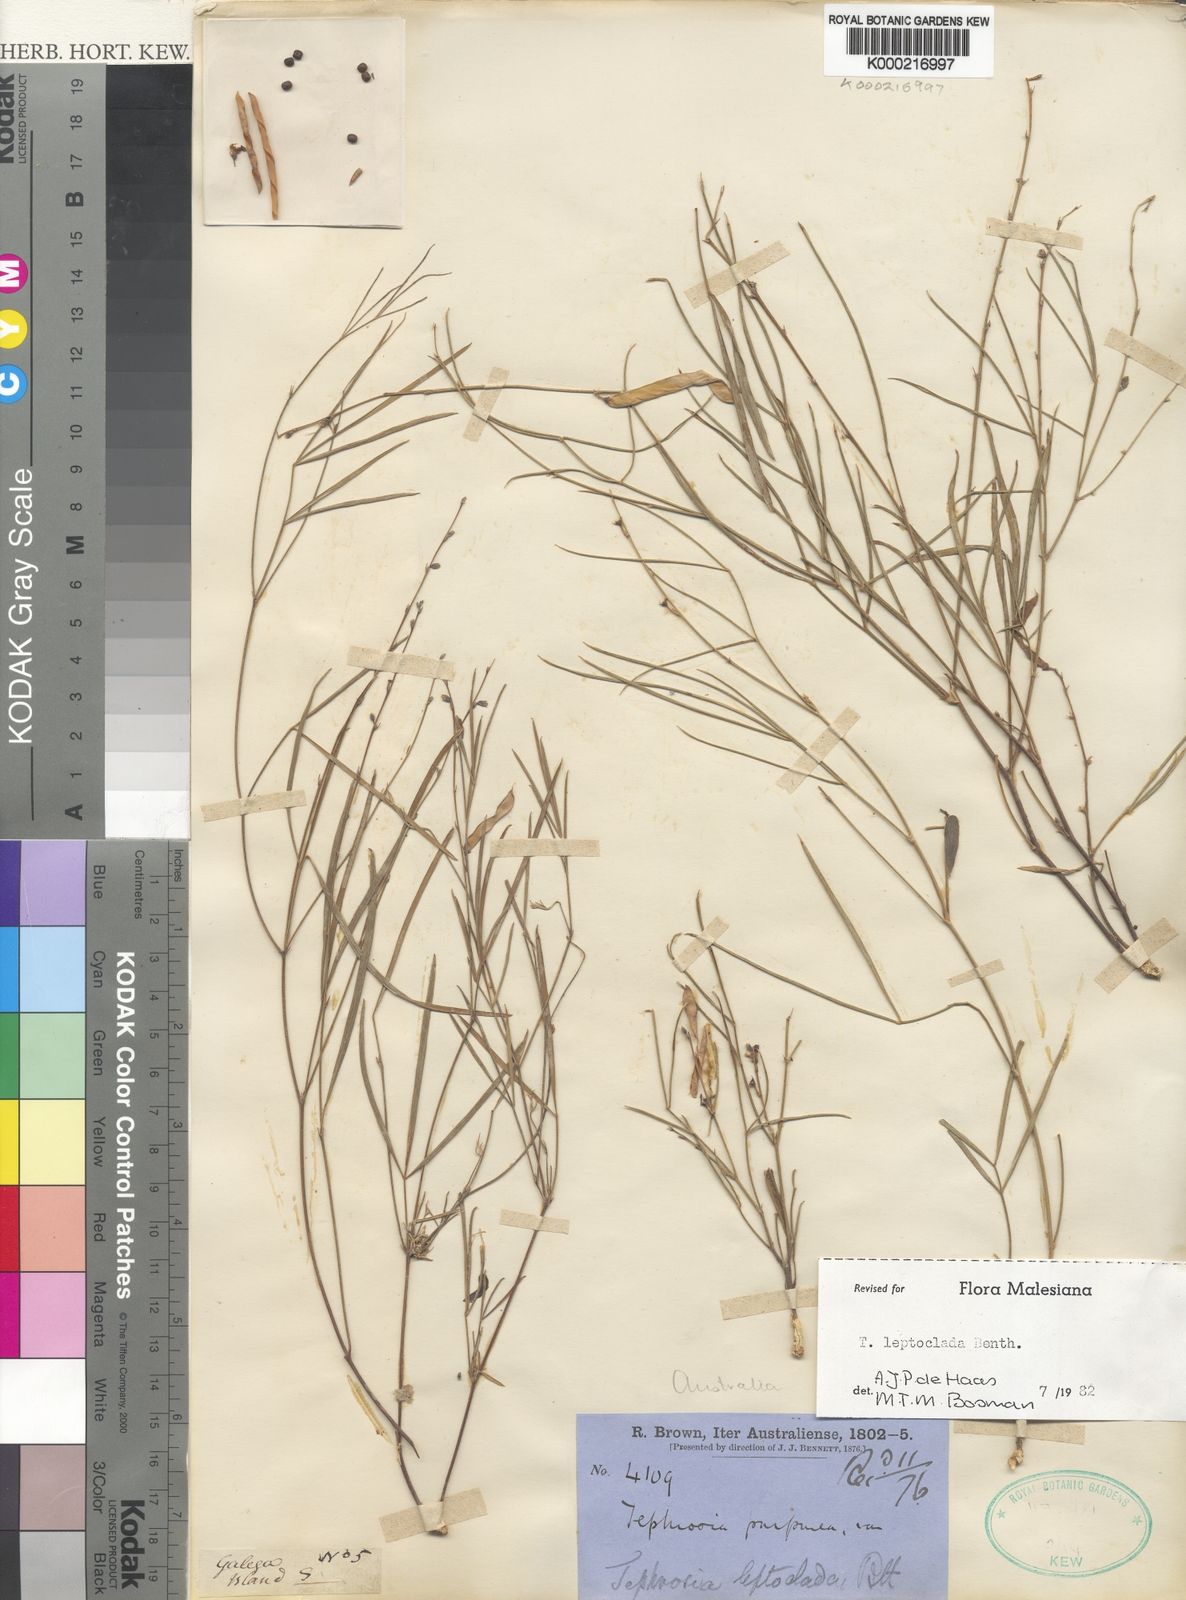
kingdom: Plantae
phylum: Tracheophyta
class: Magnoliopsida
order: Fabales
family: Fabaceae
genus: Tephrosia
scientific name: Tephrosia leptoclada
